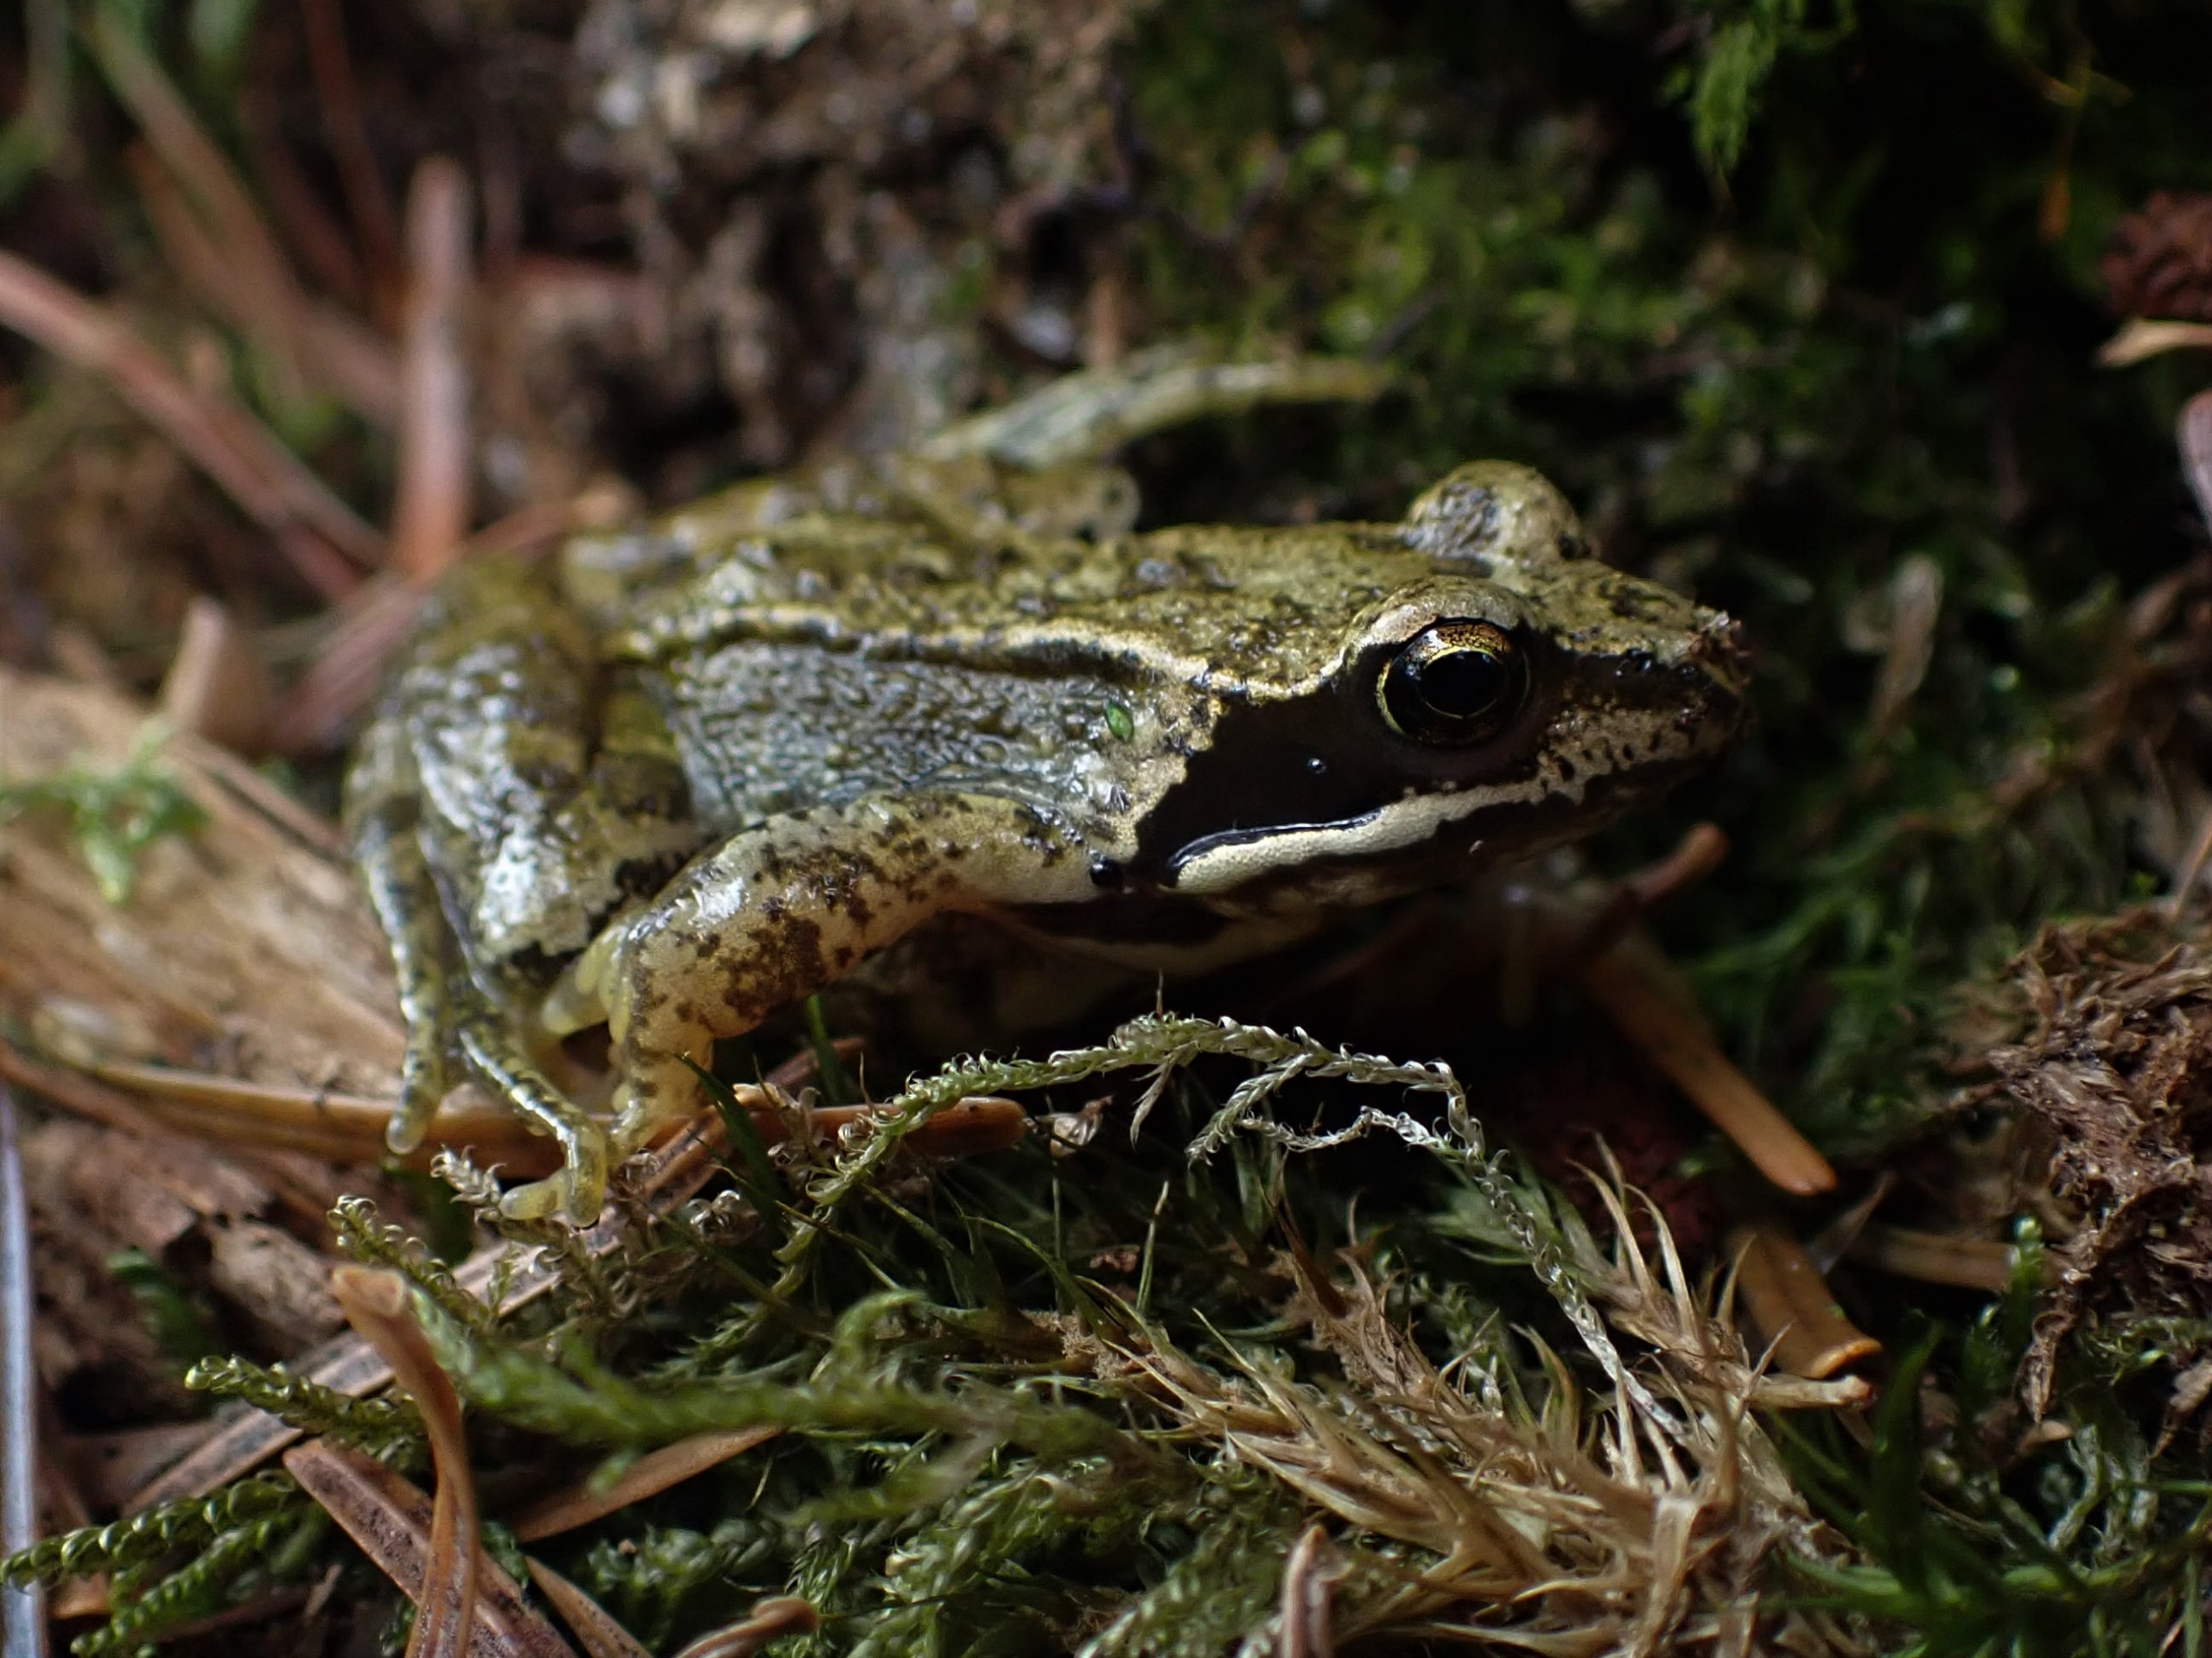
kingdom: Animalia
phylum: Chordata
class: Amphibia
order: Anura
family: Ranidae
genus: Rana
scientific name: Rana temporaria
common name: Butsnudet frø
